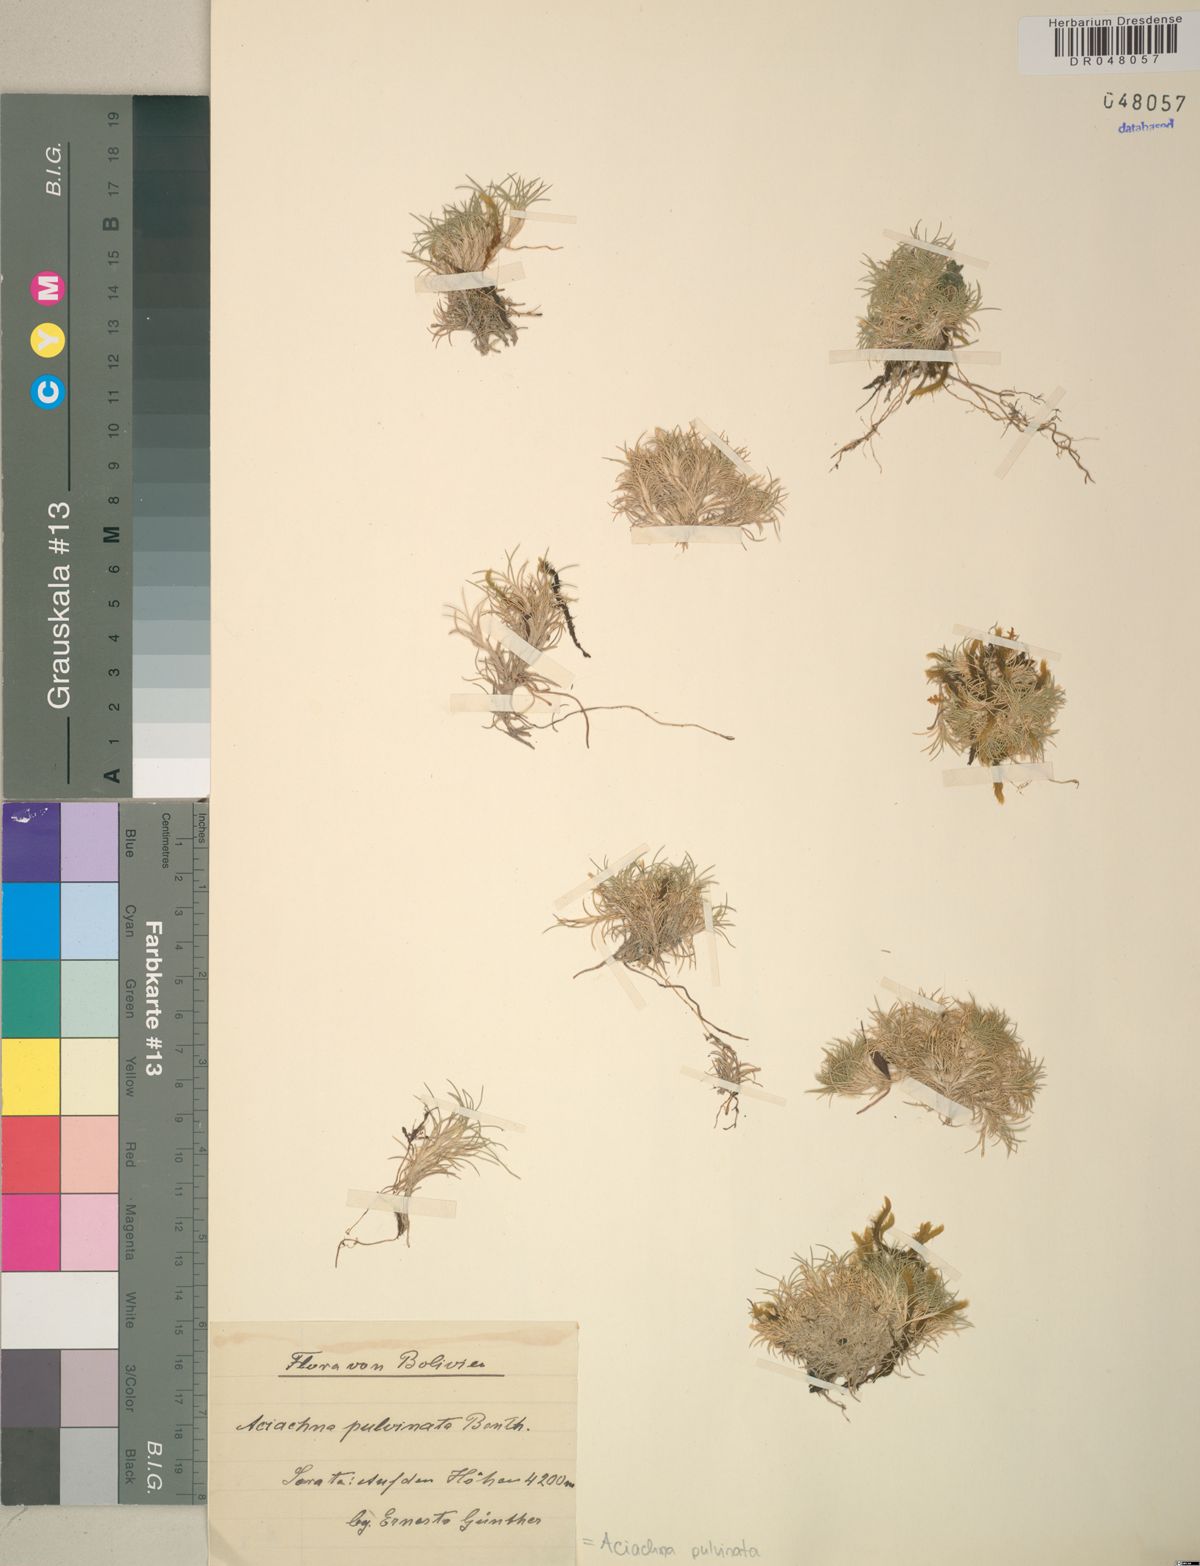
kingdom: Plantae
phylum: Tracheophyta
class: Liliopsida
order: Poales
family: Poaceae
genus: Aciachne
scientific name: Aciachne pulvinata
